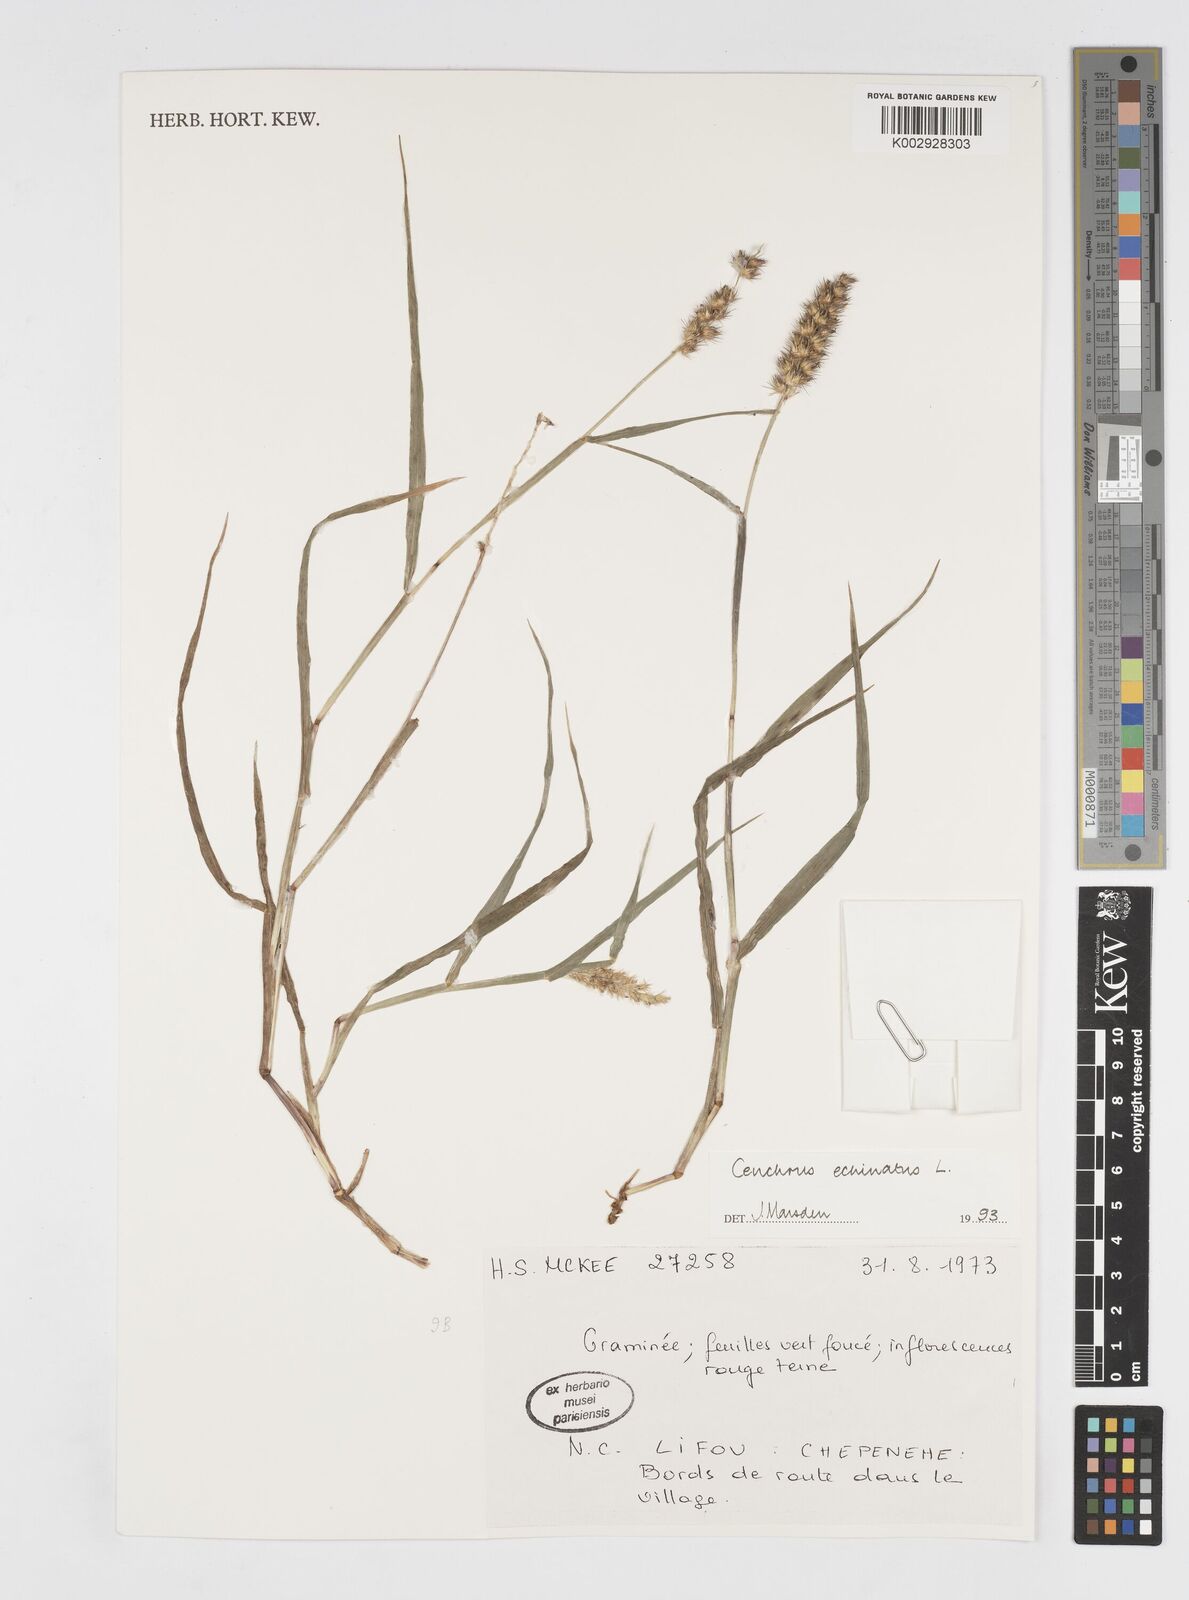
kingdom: Plantae
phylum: Tracheophyta
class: Liliopsida
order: Poales
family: Poaceae
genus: Cenchrus
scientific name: Cenchrus echinatus
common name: Southern sandbur
